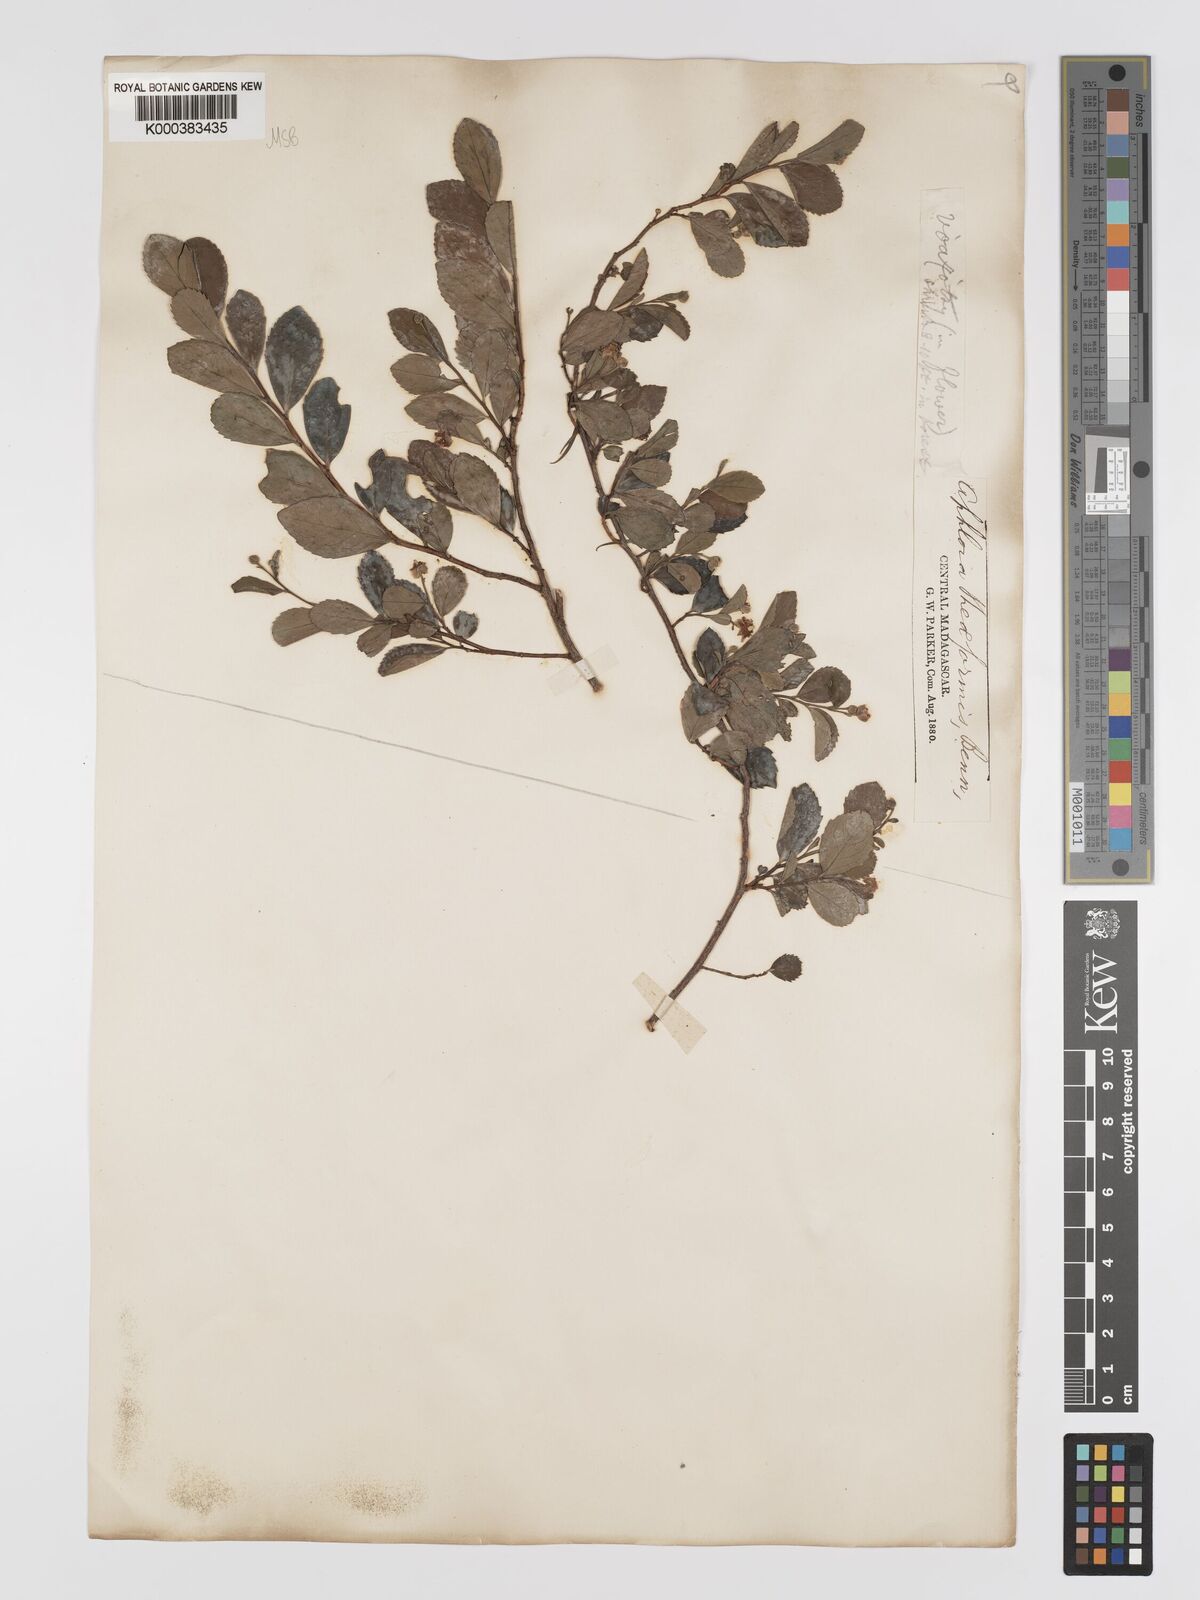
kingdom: Plantae
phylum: Tracheophyta
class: Magnoliopsida
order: Crossosomatales
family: Aphloiaceae
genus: Aphloia
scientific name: Aphloia theiformis
